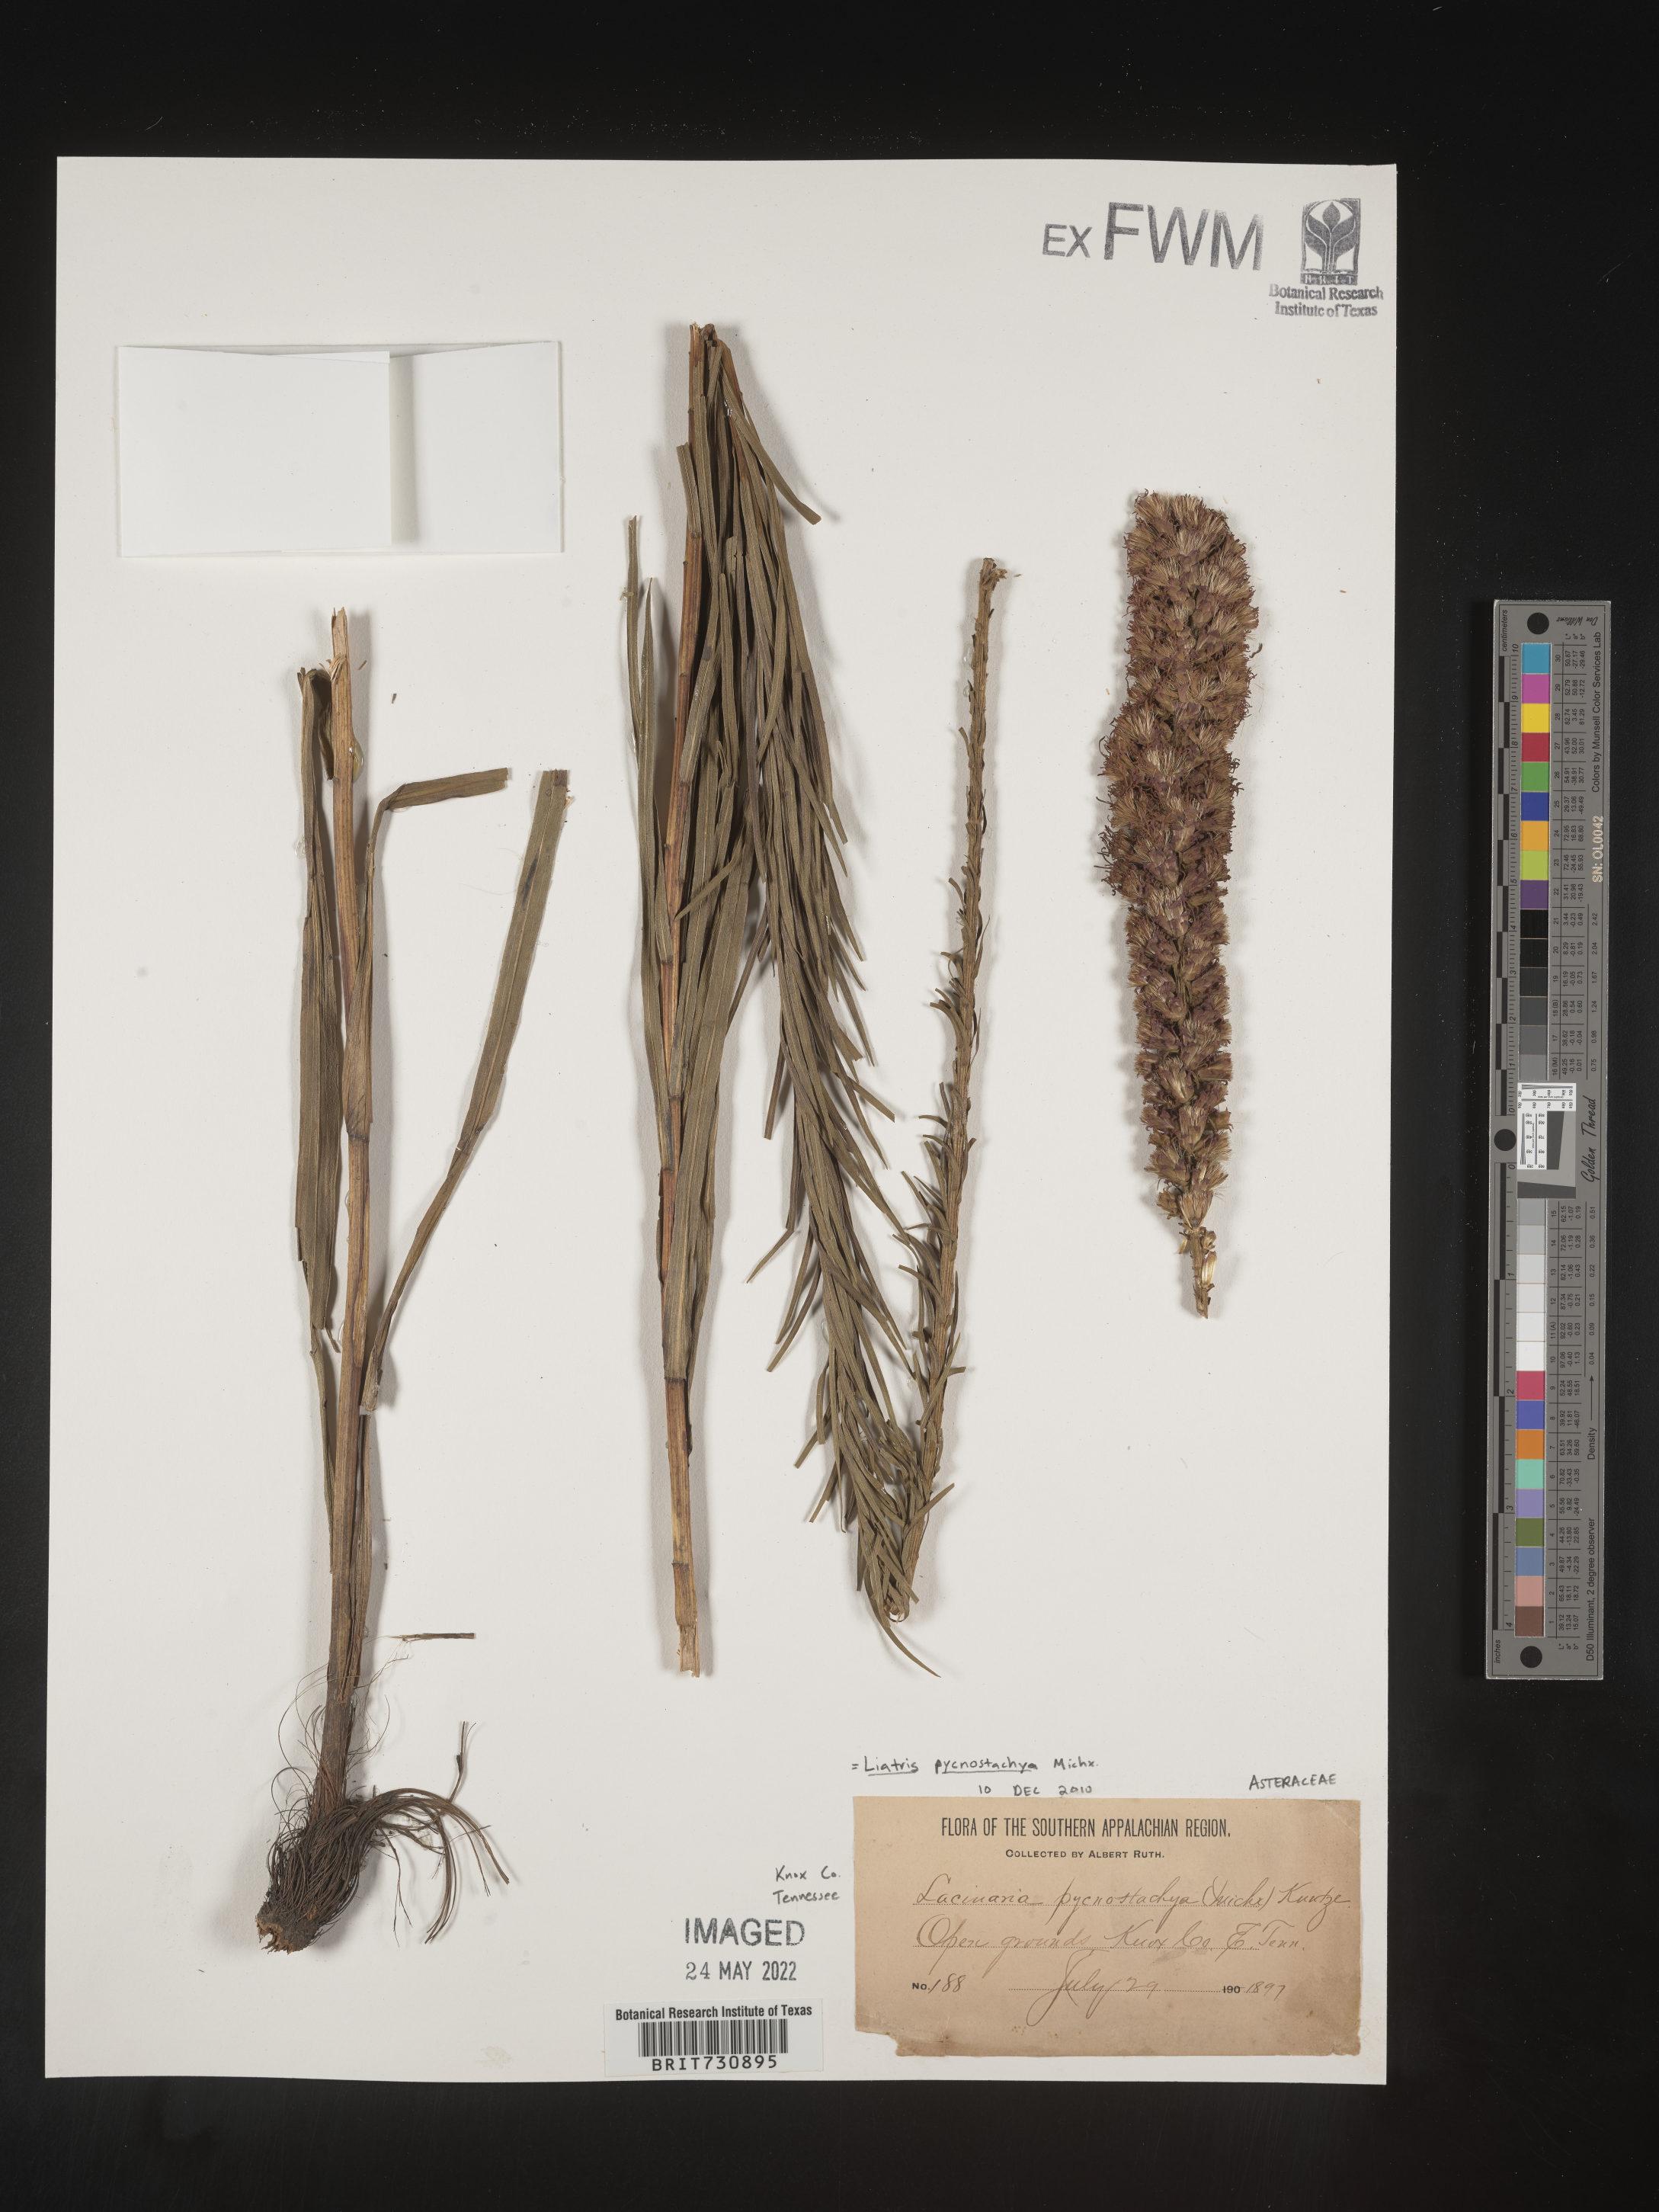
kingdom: Plantae
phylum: Tracheophyta
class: Magnoliopsida
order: Asterales
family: Asteraceae
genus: Liatris
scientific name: Liatris pycnostachya
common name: Cattail gayfeather
